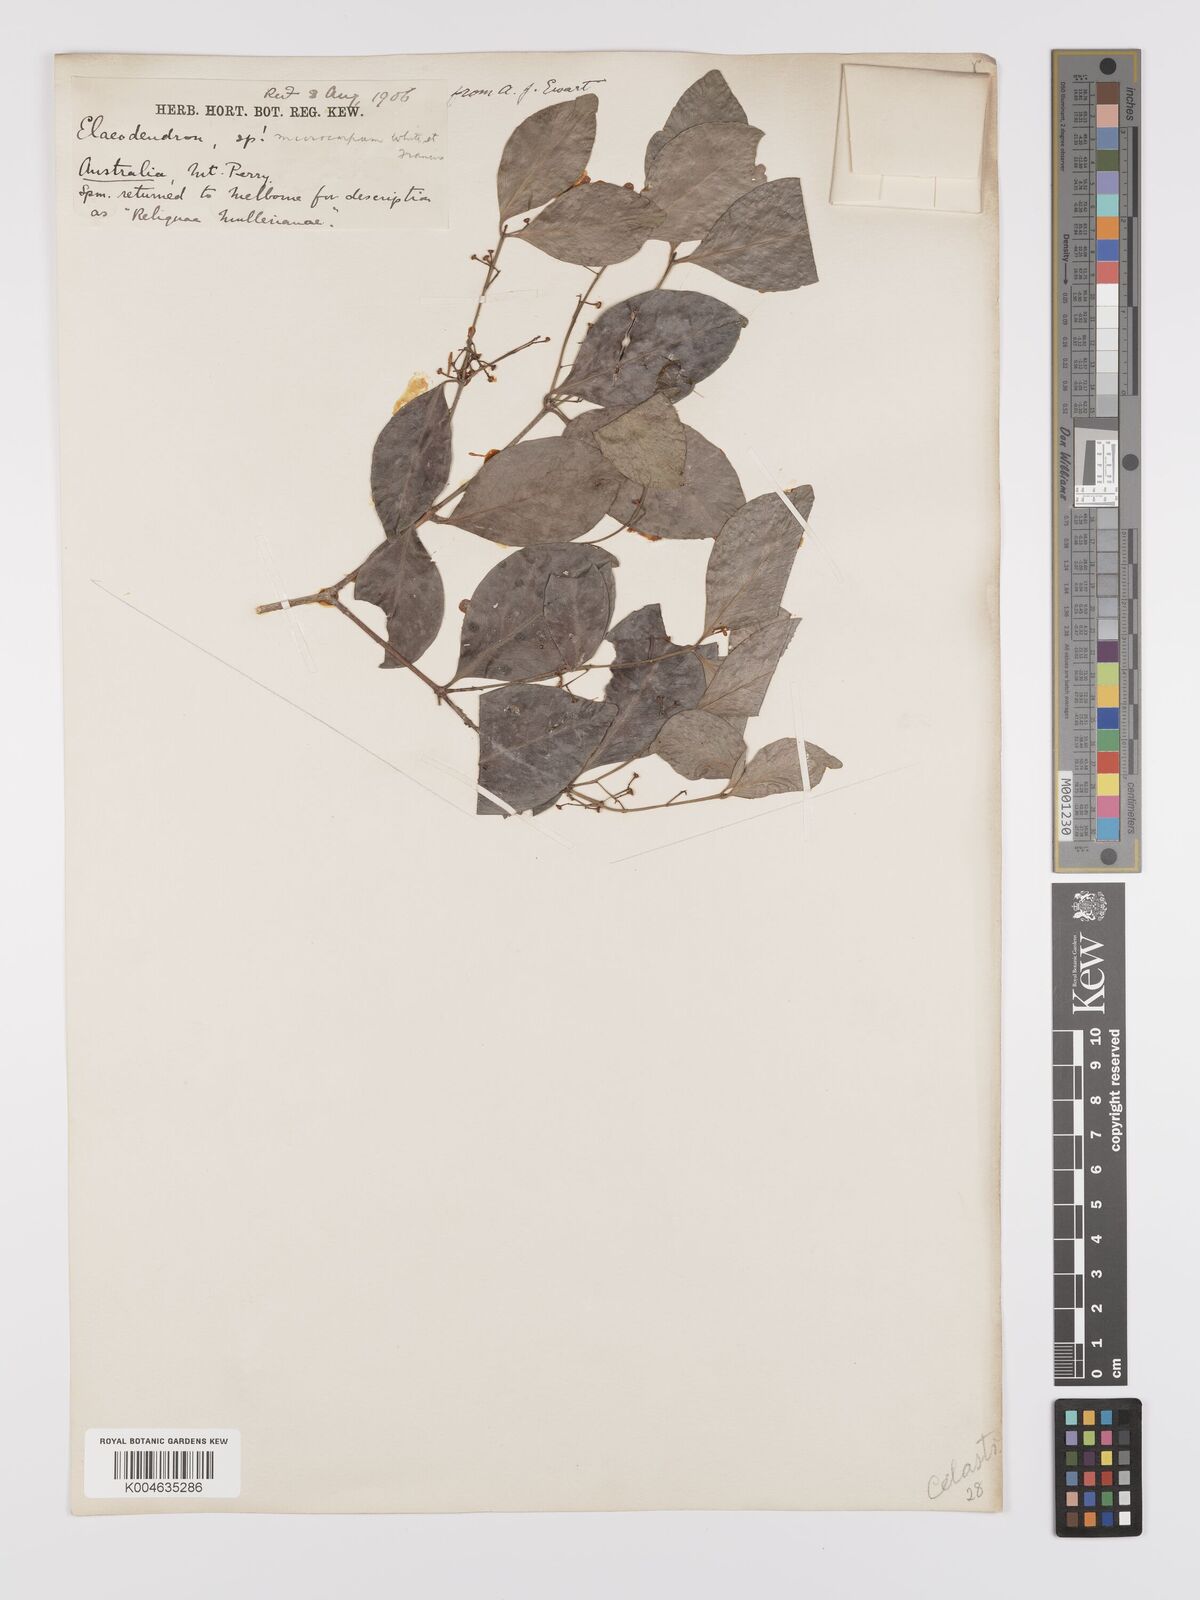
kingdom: Plantae
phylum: Tracheophyta
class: Magnoliopsida
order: Celastrales
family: Celastraceae
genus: Pleurostylia
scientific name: Pleurostylia opposita
